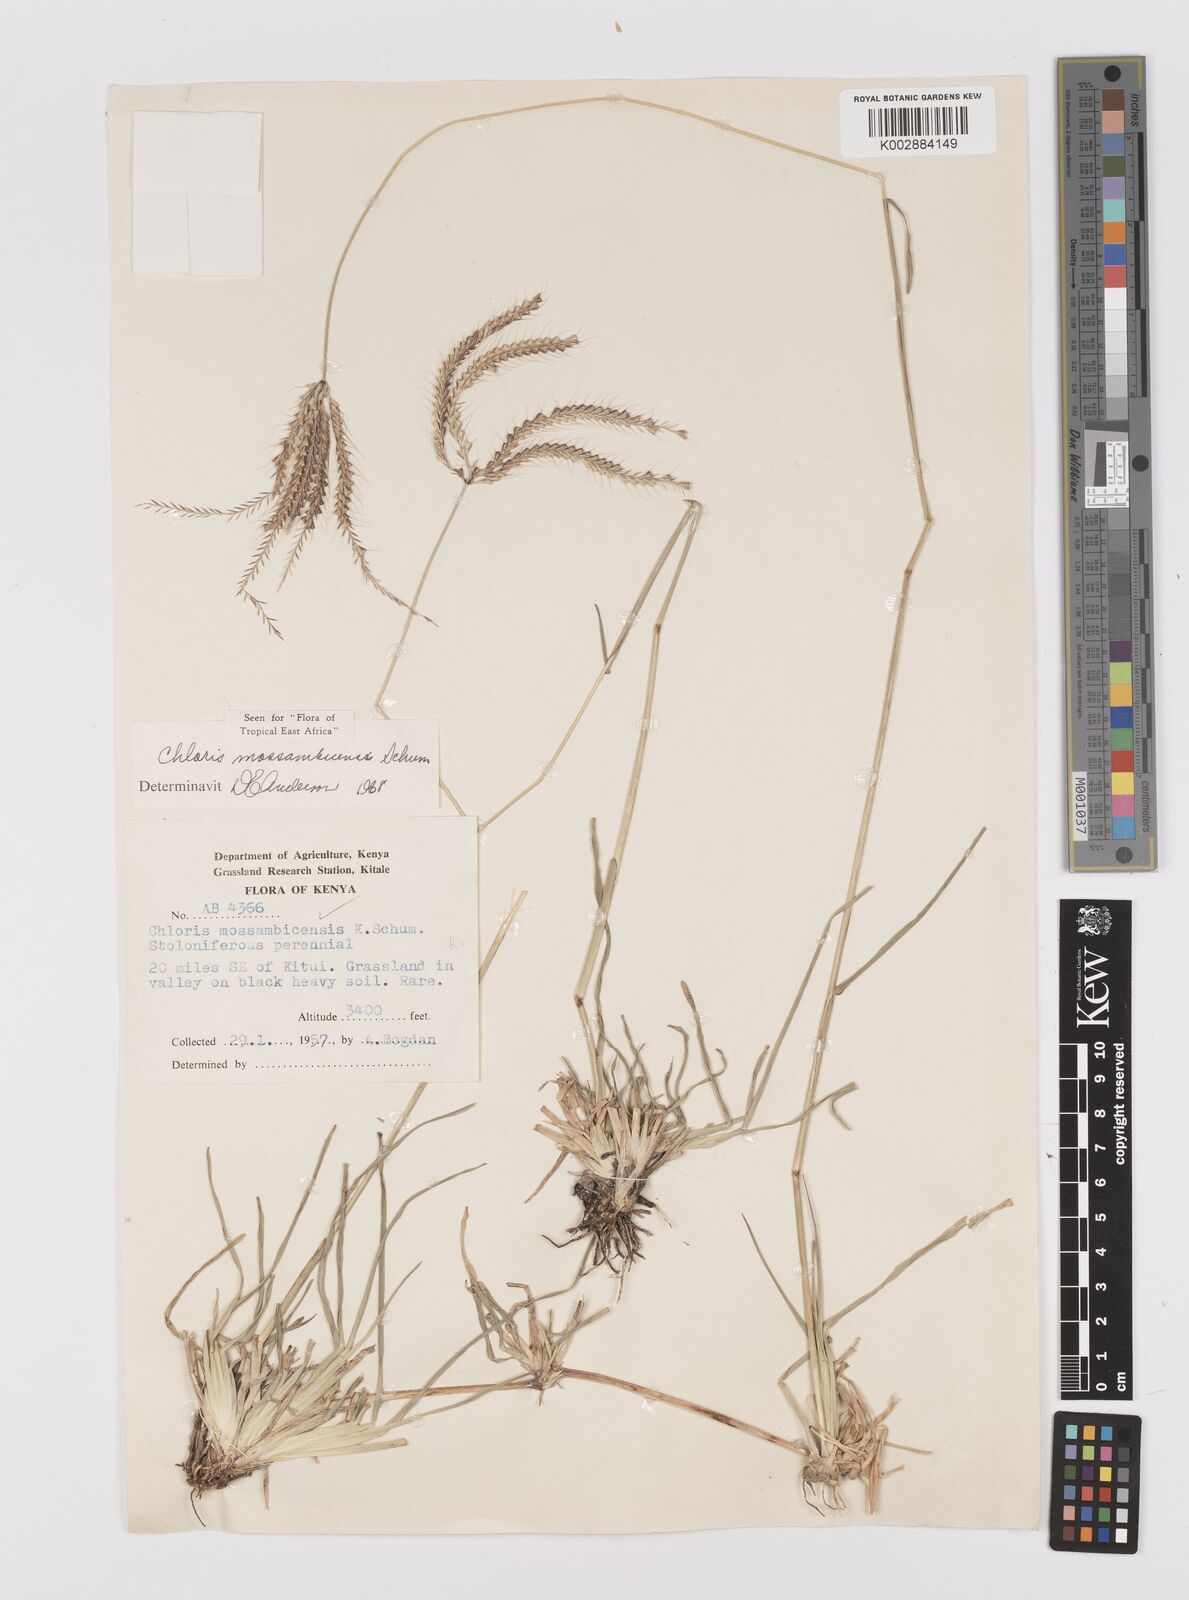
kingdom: Plantae
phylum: Tracheophyta
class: Liliopsida
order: Poales
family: Poaceae
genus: Chloris
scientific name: Chloris mossambicensis
